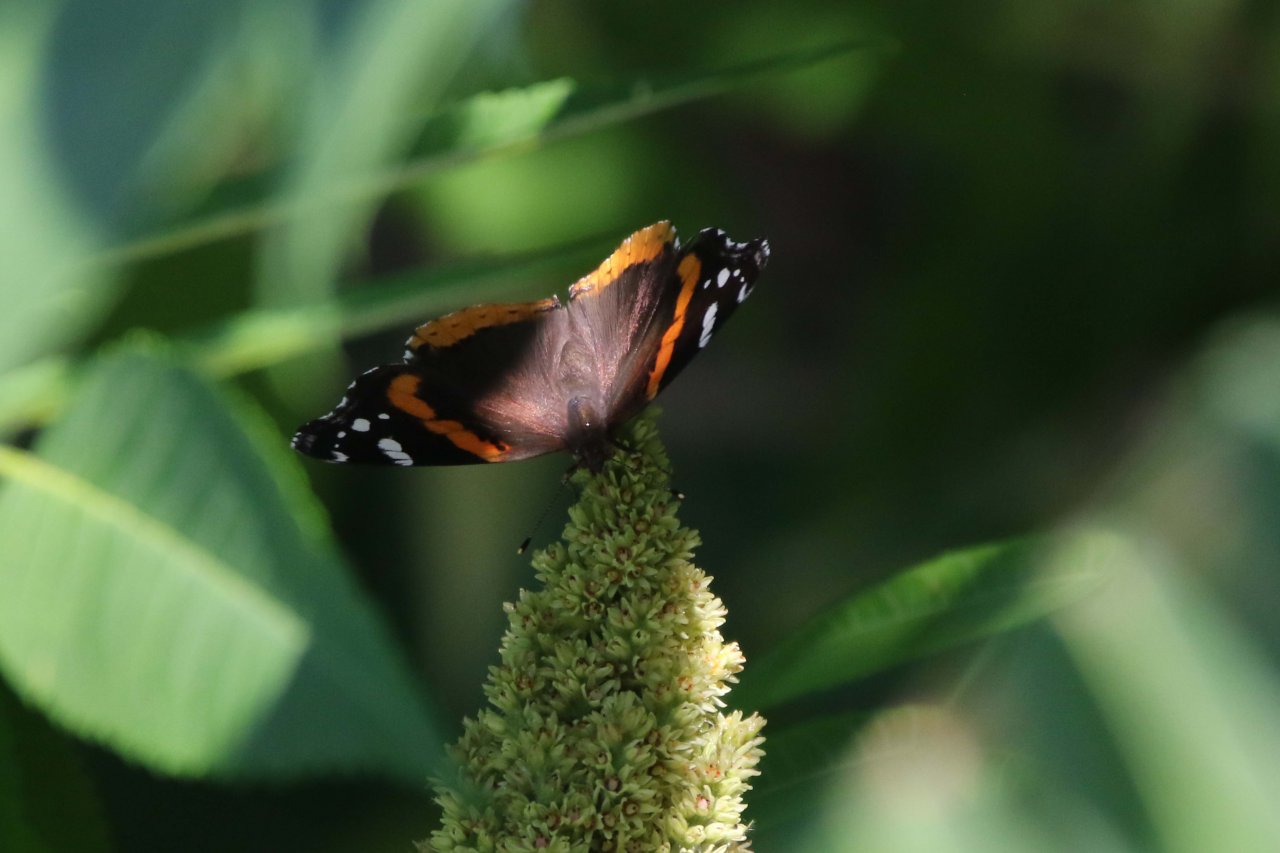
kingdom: Animalia
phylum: Arthropoda
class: Insecta
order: Lepidoptera
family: Nymphalidae
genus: Vanessa
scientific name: Vanessa atalanta
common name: Red Admiral
